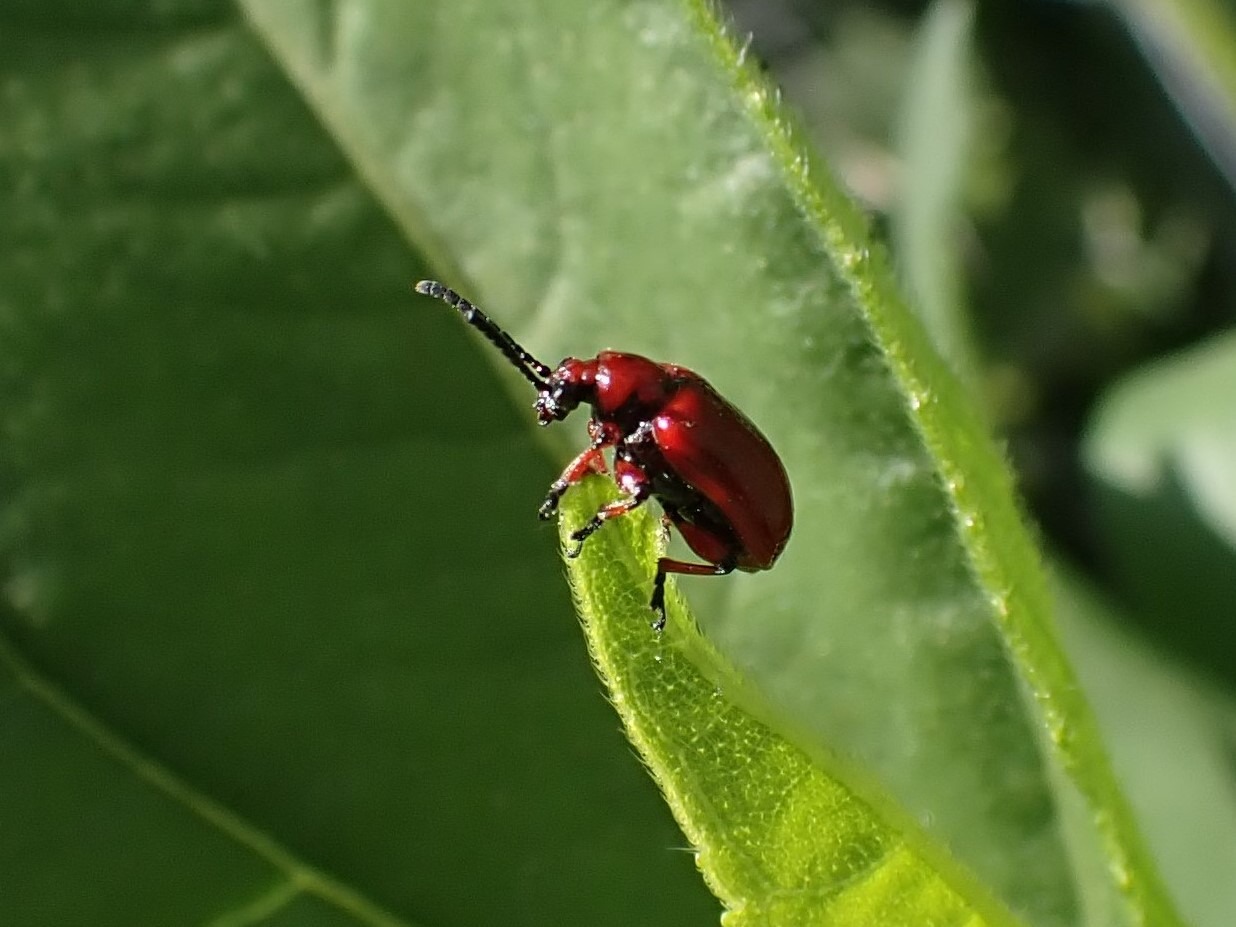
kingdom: Animalia
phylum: Arthropoda
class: Insecta
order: Coleoptera
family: Chrysomelidae
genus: Lilioceris
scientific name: Lilioceris merdigera
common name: Konvalbille
